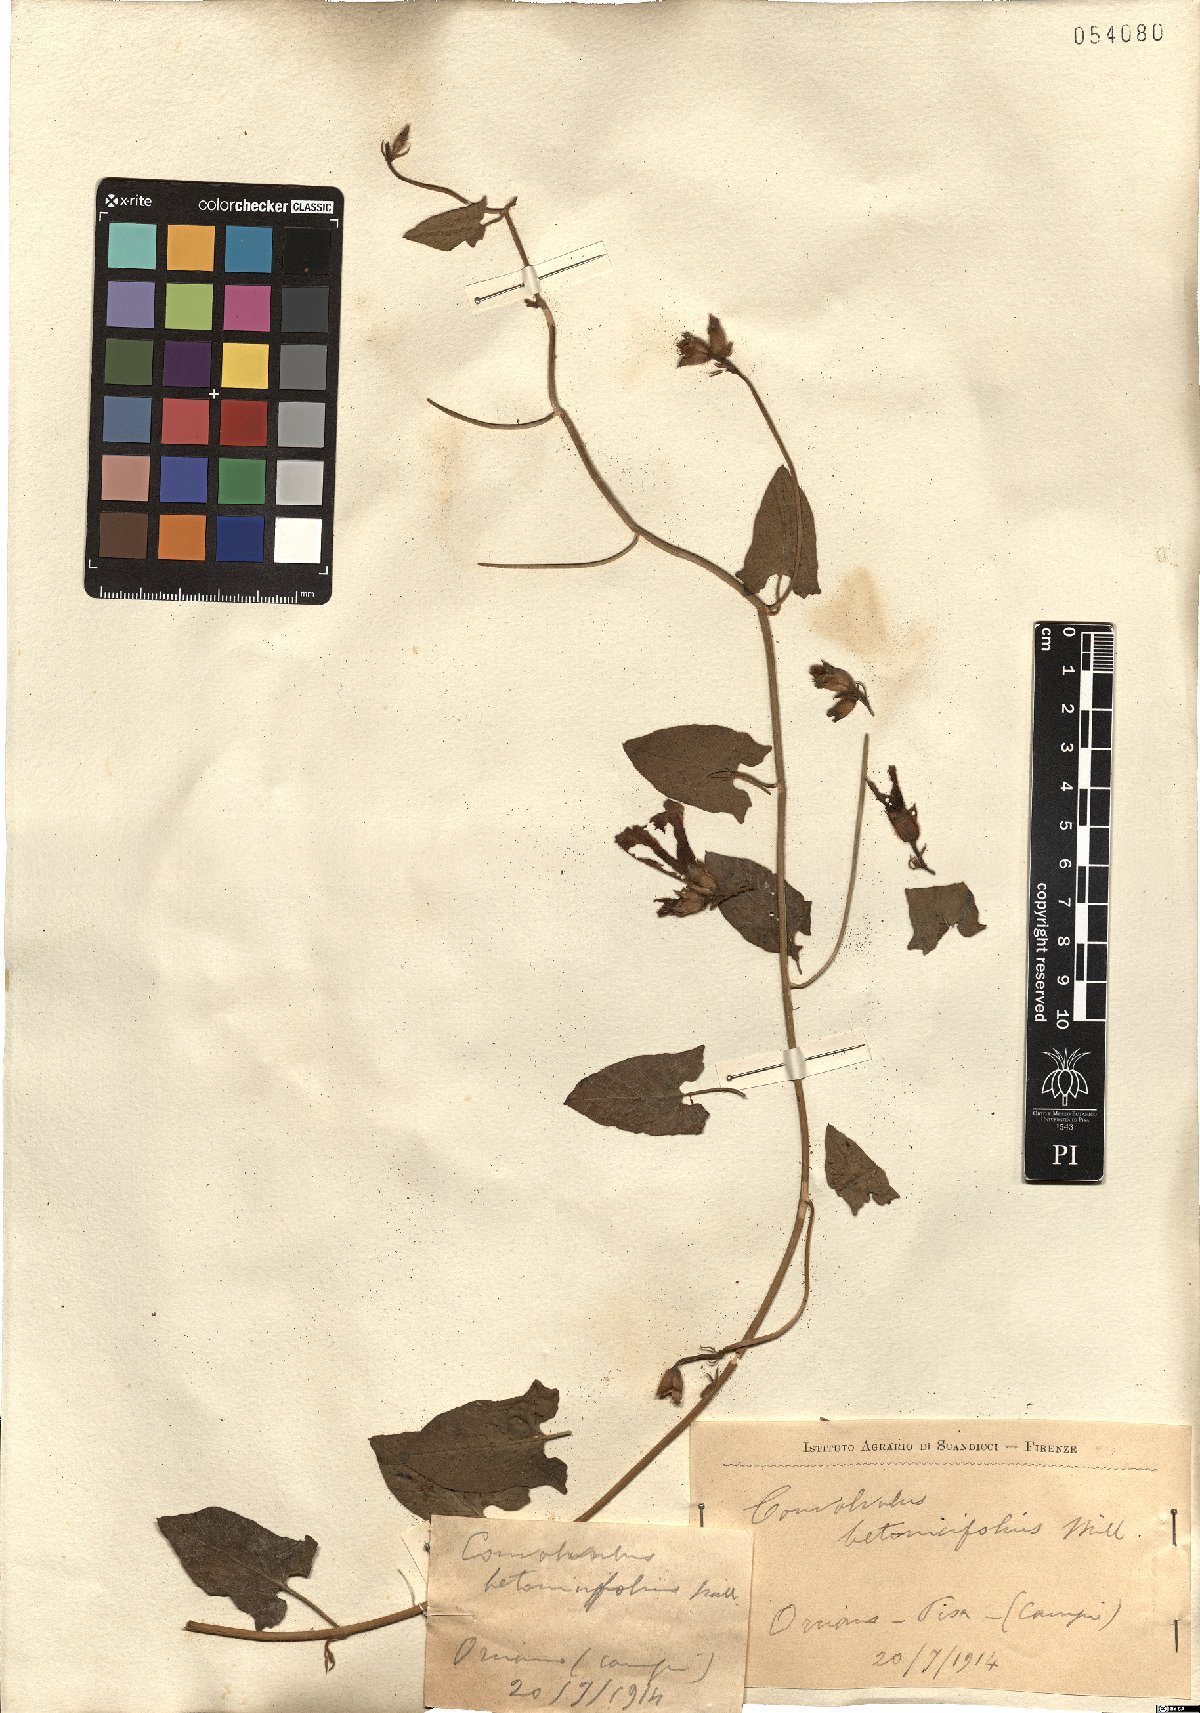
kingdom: Plantae
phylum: Tracheophyta
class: Magnoliopsida
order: Solanales
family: Convolvulaceae
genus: Convolvulus
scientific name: Convolvulus betonicifolius
